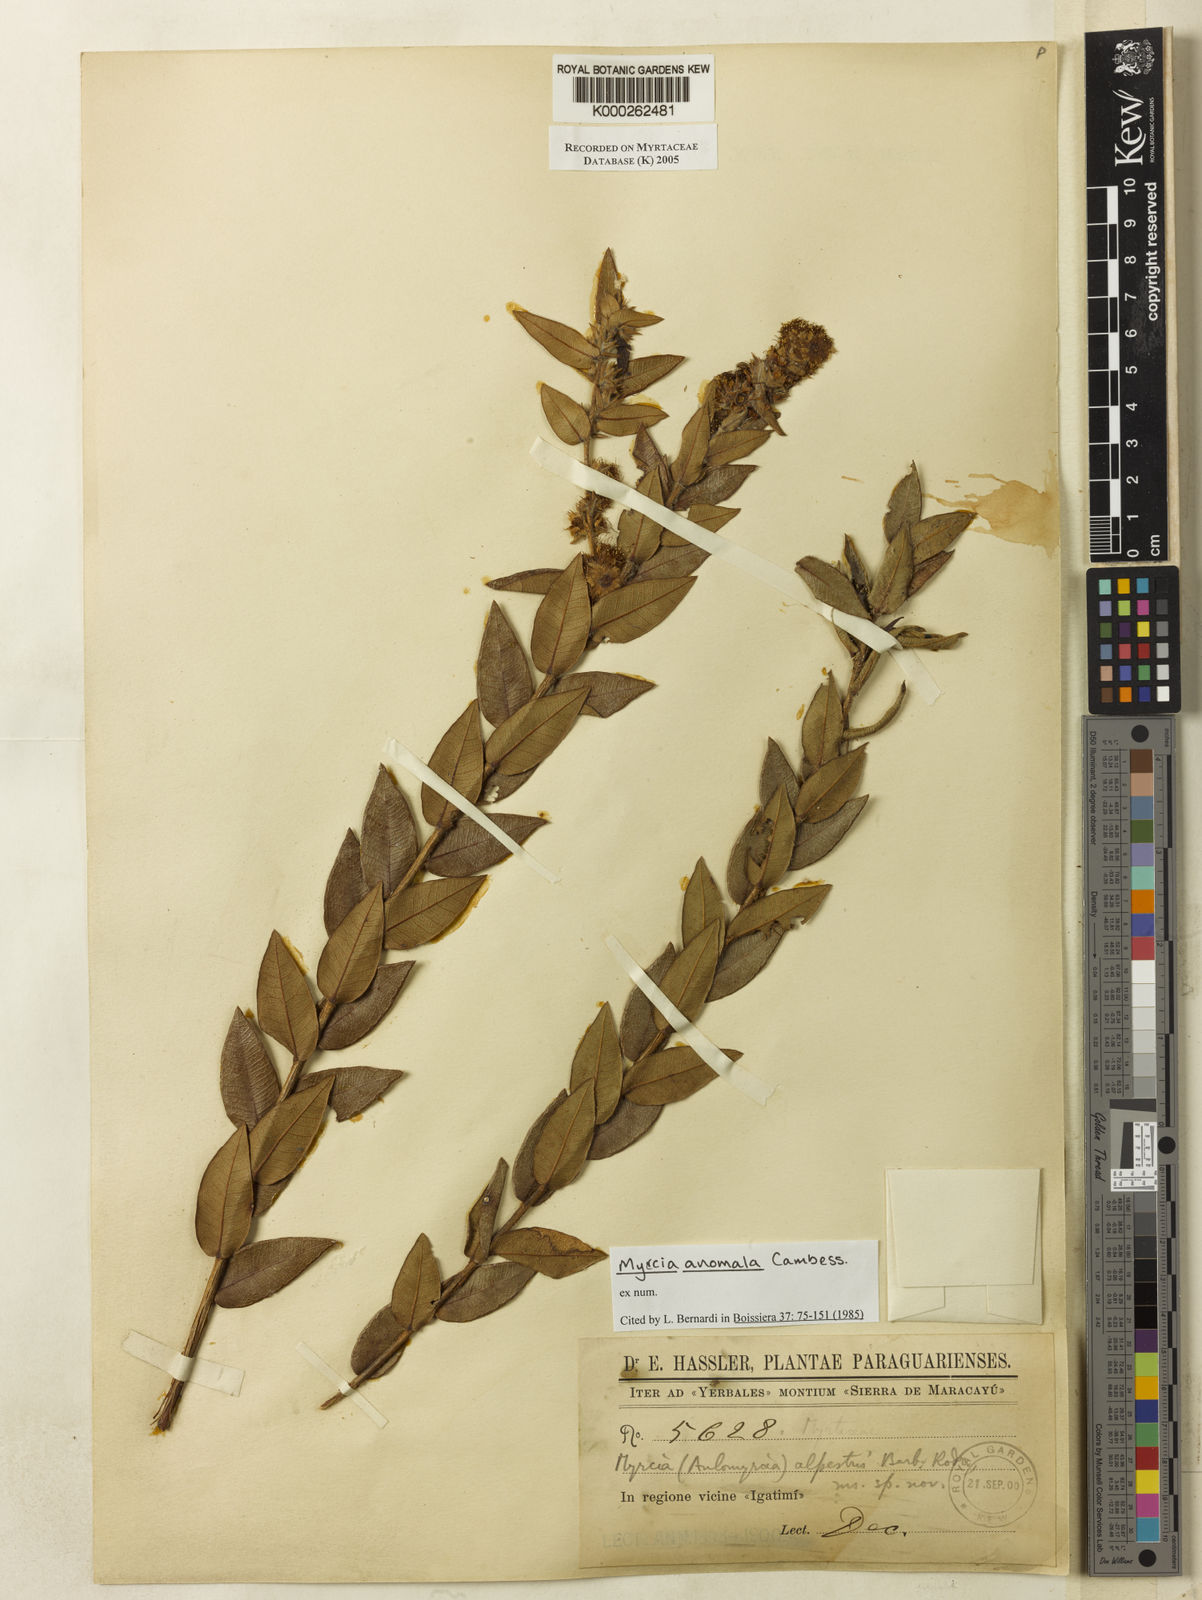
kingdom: Plantae
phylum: Tracheophyta
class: Magnoliopsida
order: Myrtales
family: Myrtaceae
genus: Myrcia
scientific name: Myrcia anomala
